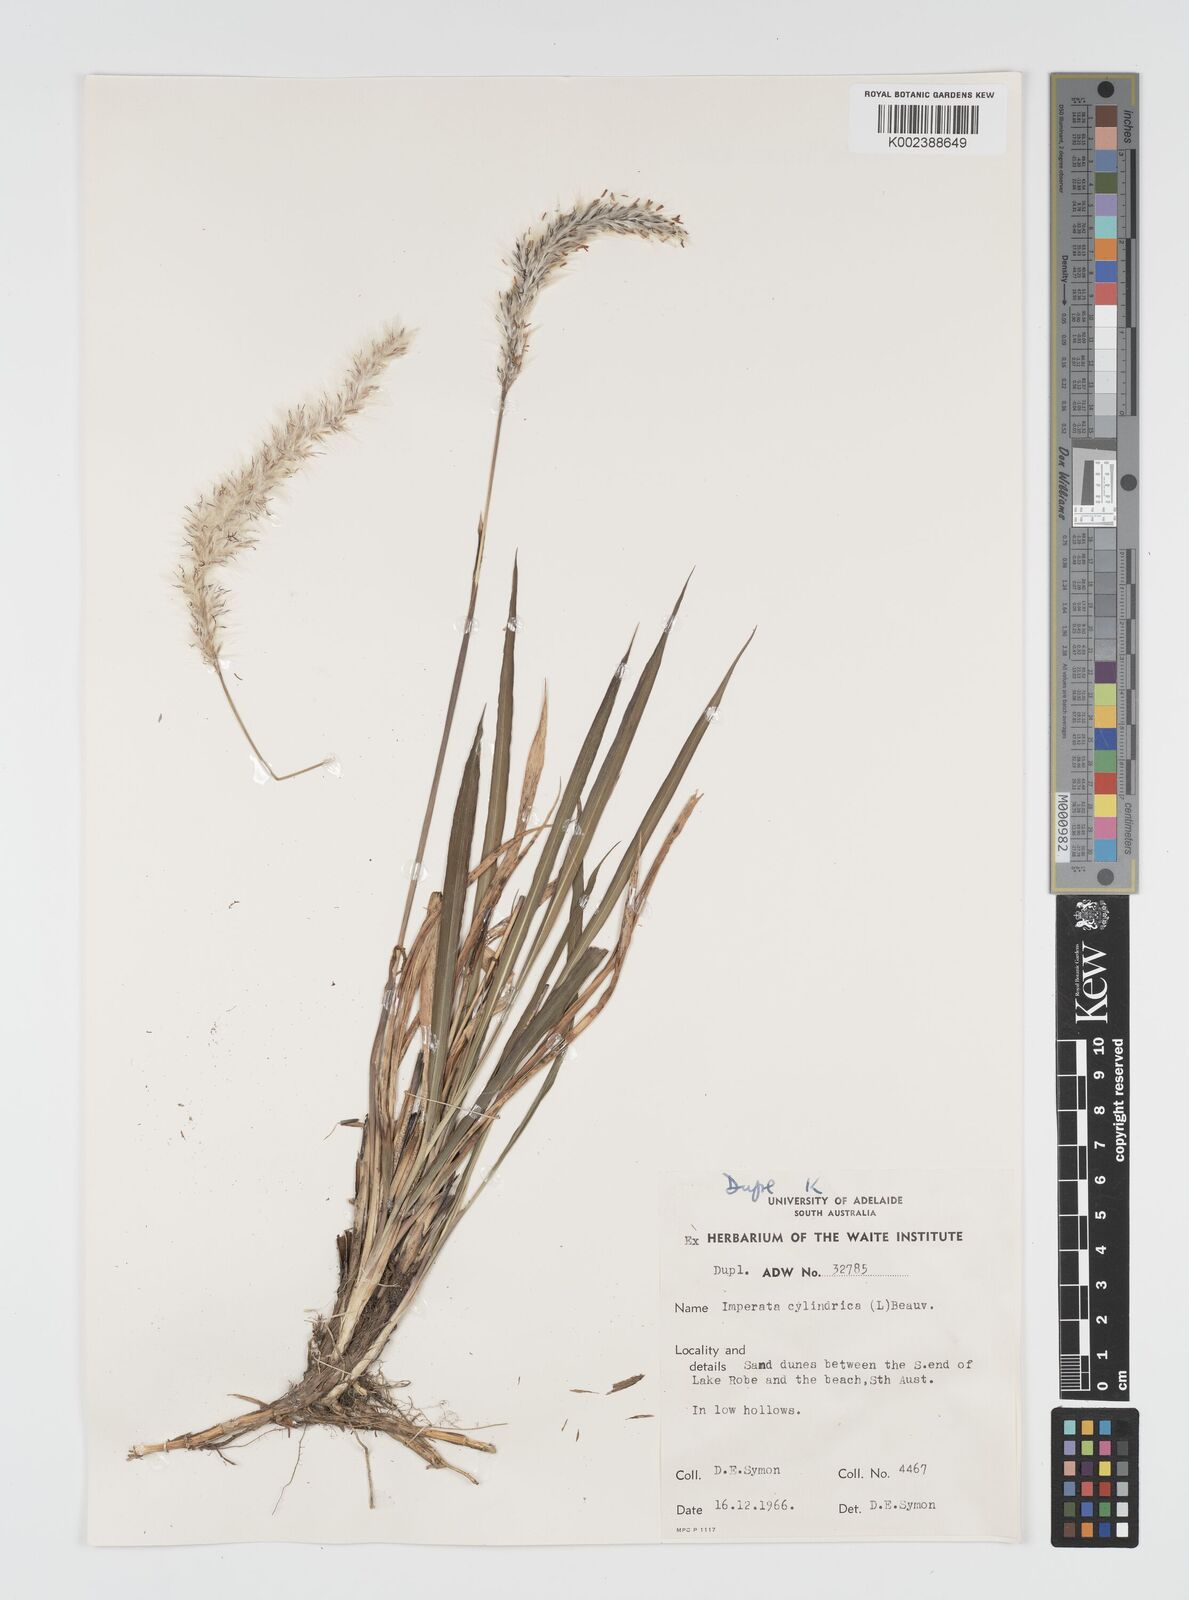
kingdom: Plantae
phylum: Tracheophyta
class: Liliopsida
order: Poales
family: Poaceae
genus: Imperata
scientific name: Imperata cylindrica
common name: Cogongrass
